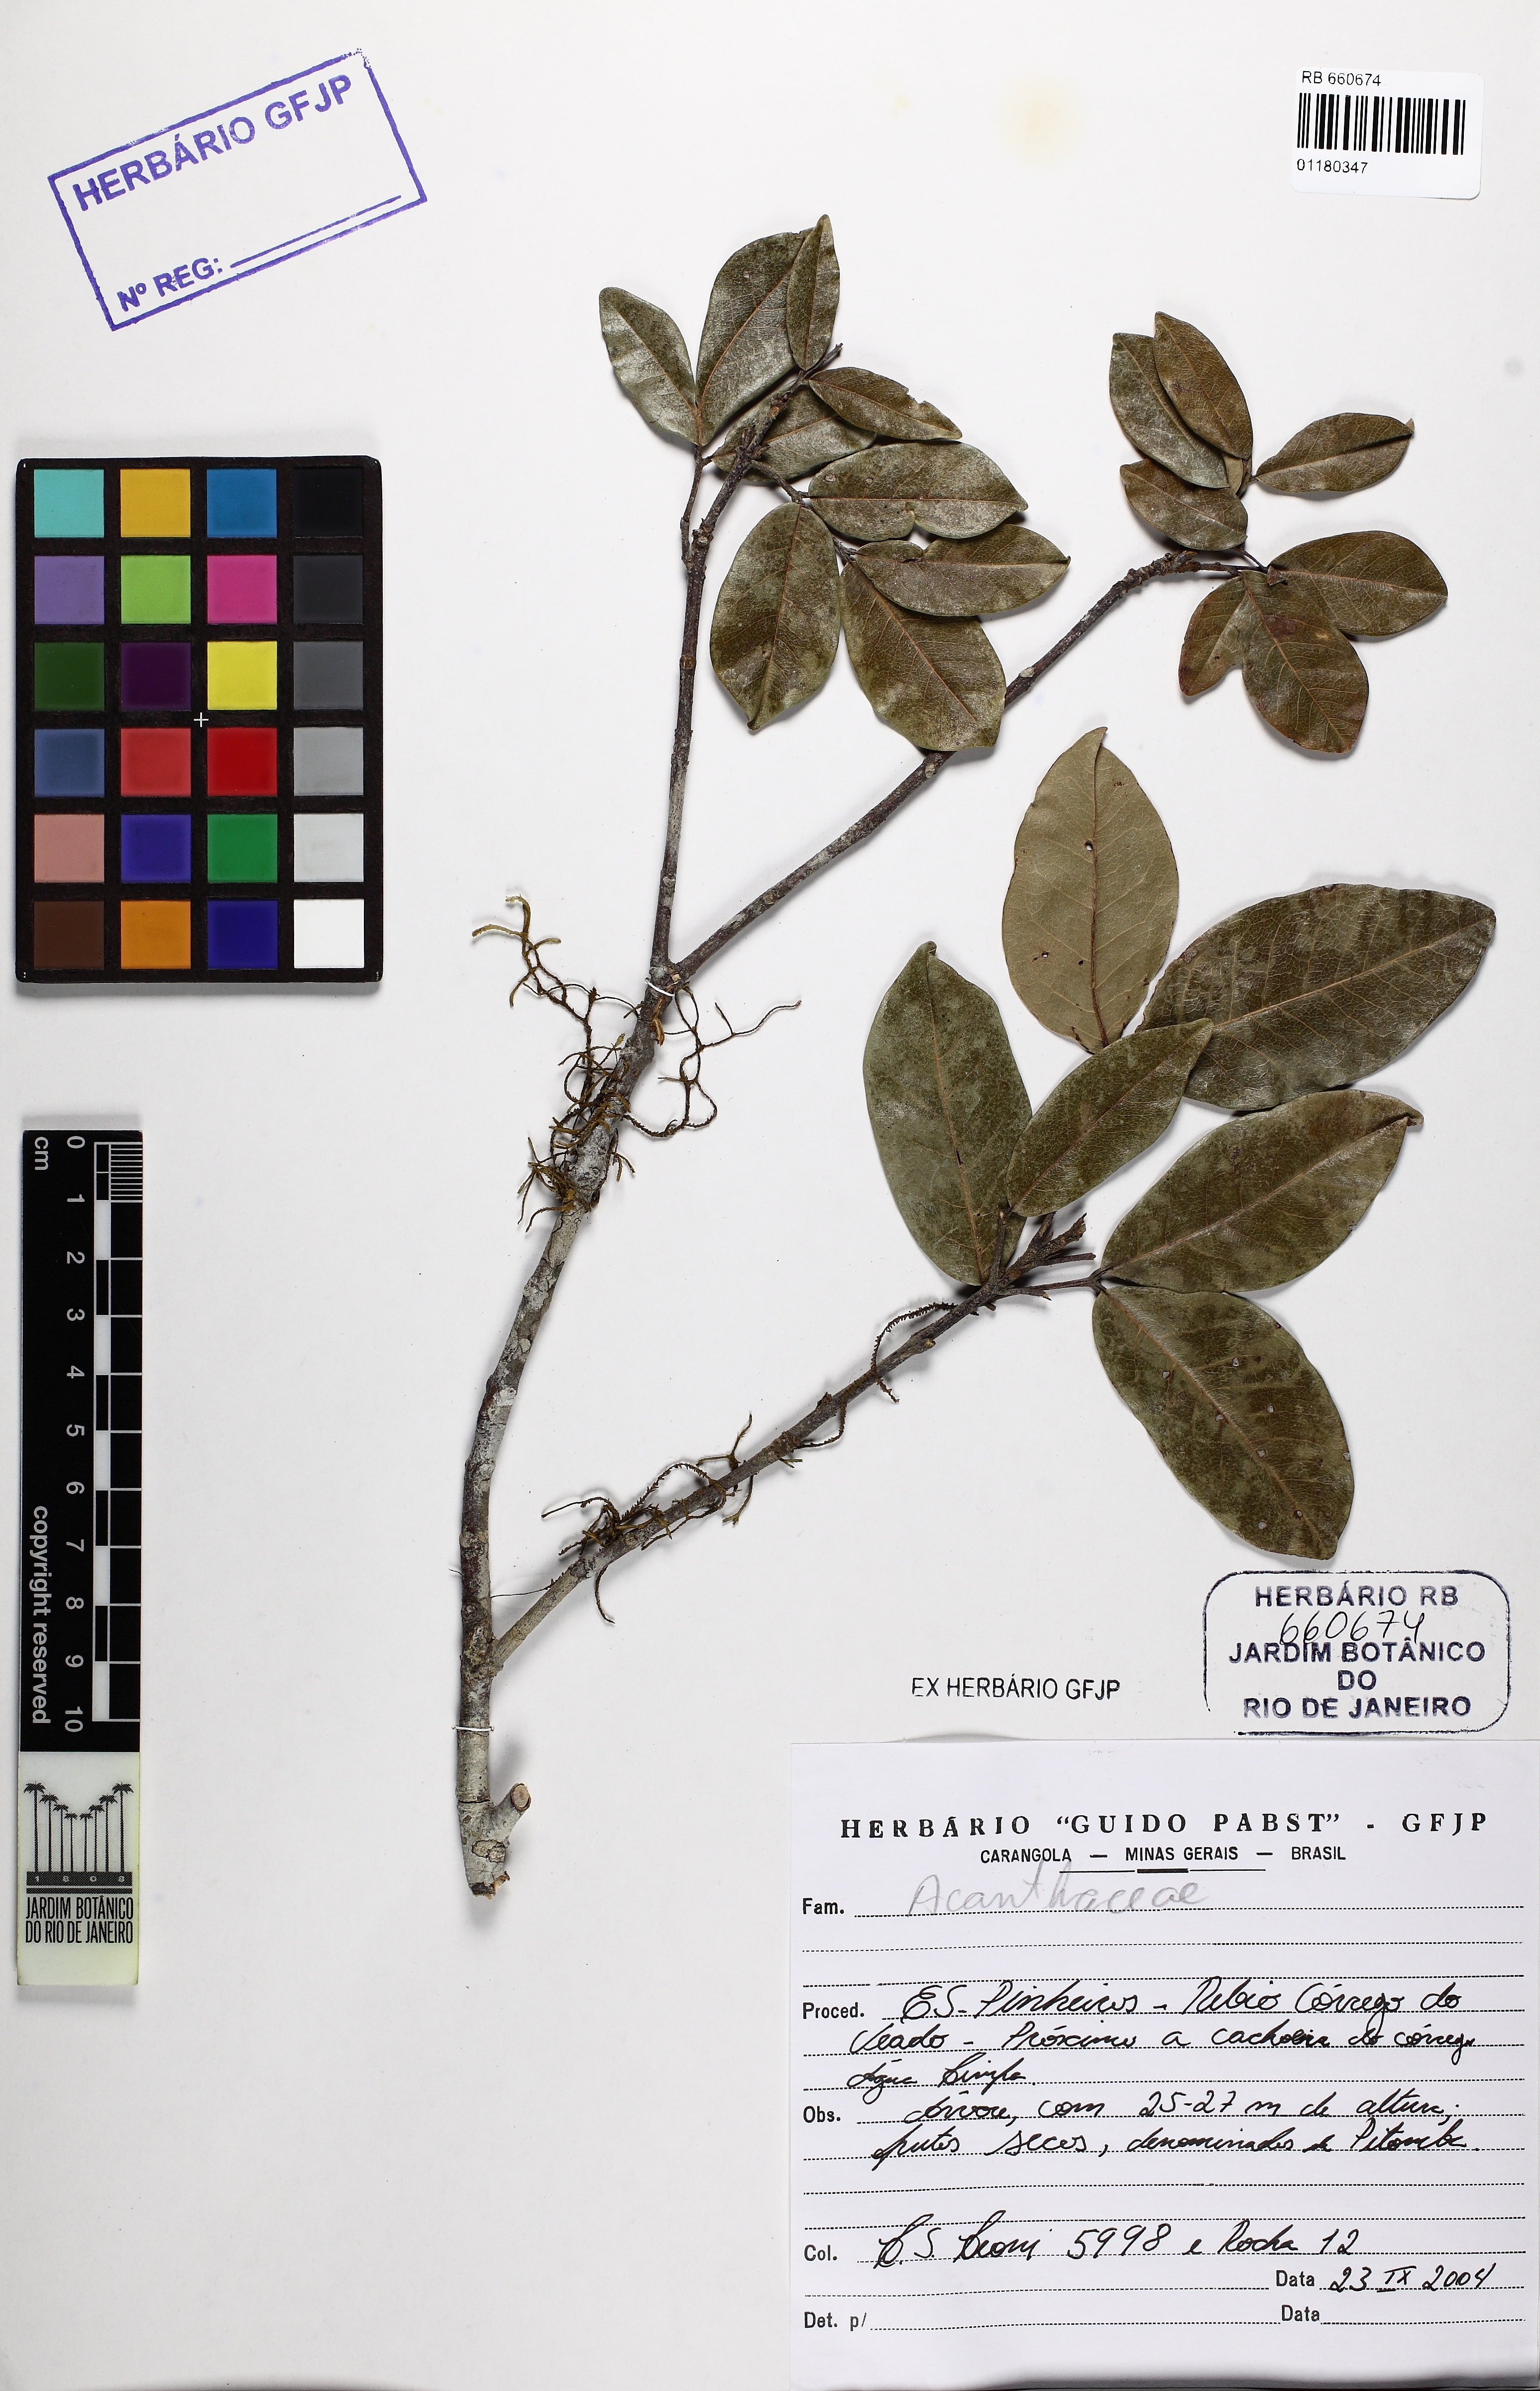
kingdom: Plantae
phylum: Tracheophyta
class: Magnoliopsida
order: Sapindales
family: Rutaceae
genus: Metrodorea
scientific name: Metrodorea
